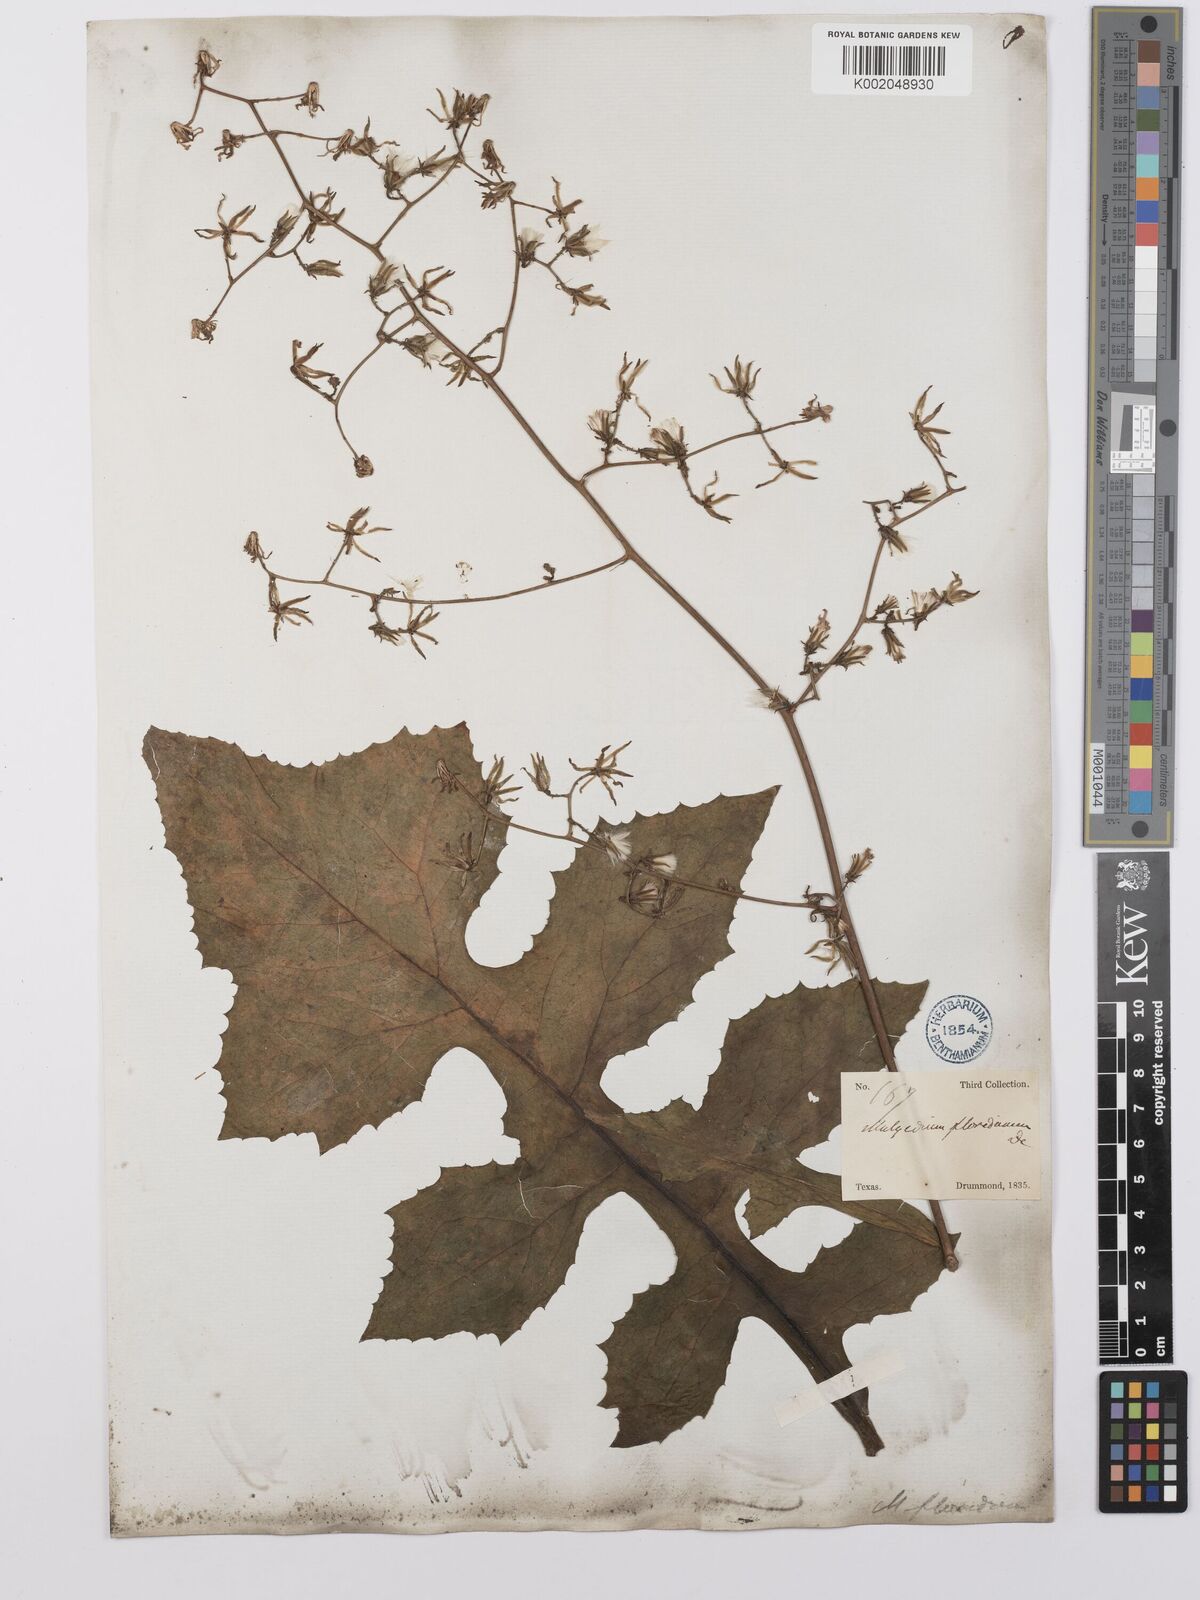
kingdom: Plantae
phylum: Tracheophyta
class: Magnoliopsida
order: Asterales
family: Asteraceae
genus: Lactuca
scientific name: Lactuca floridana
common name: Woodland lettuce
